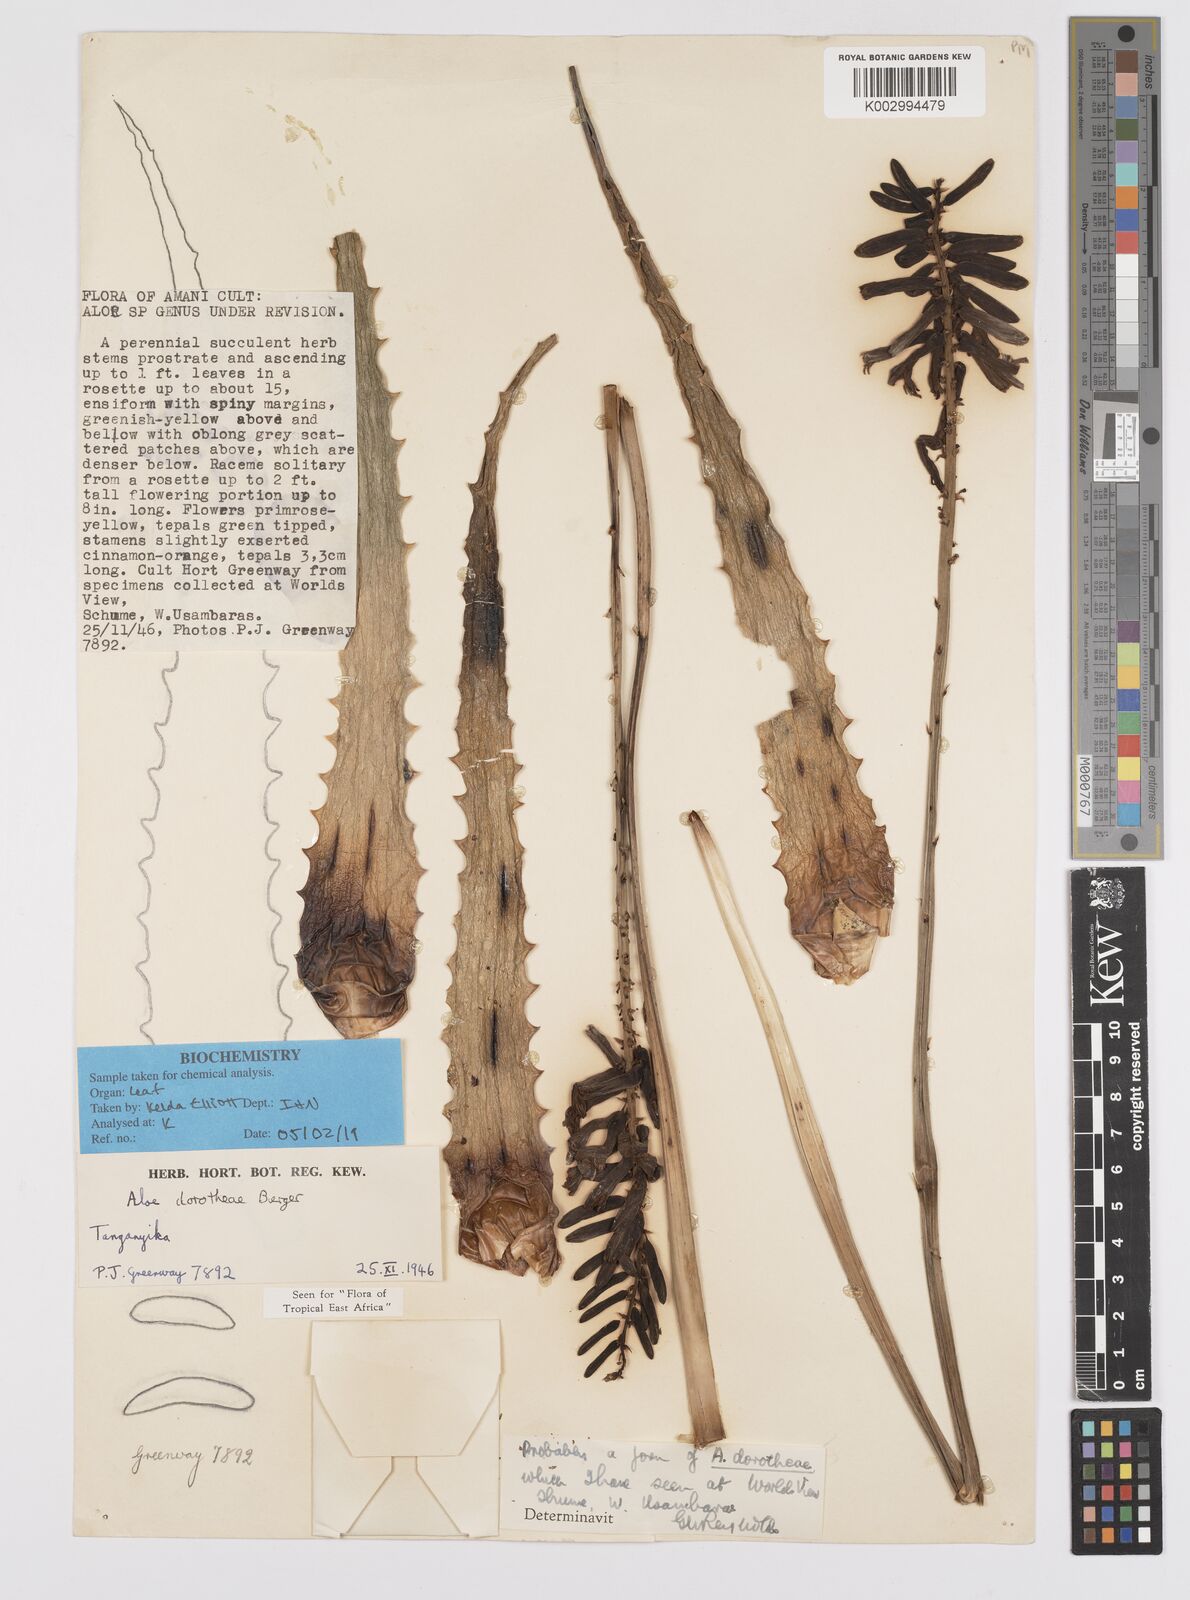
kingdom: Plantae
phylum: Tracheophyta
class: Liliopsida
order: Asparagales
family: Asphodelaceae
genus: Aloe
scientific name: Aloe dorotheae
